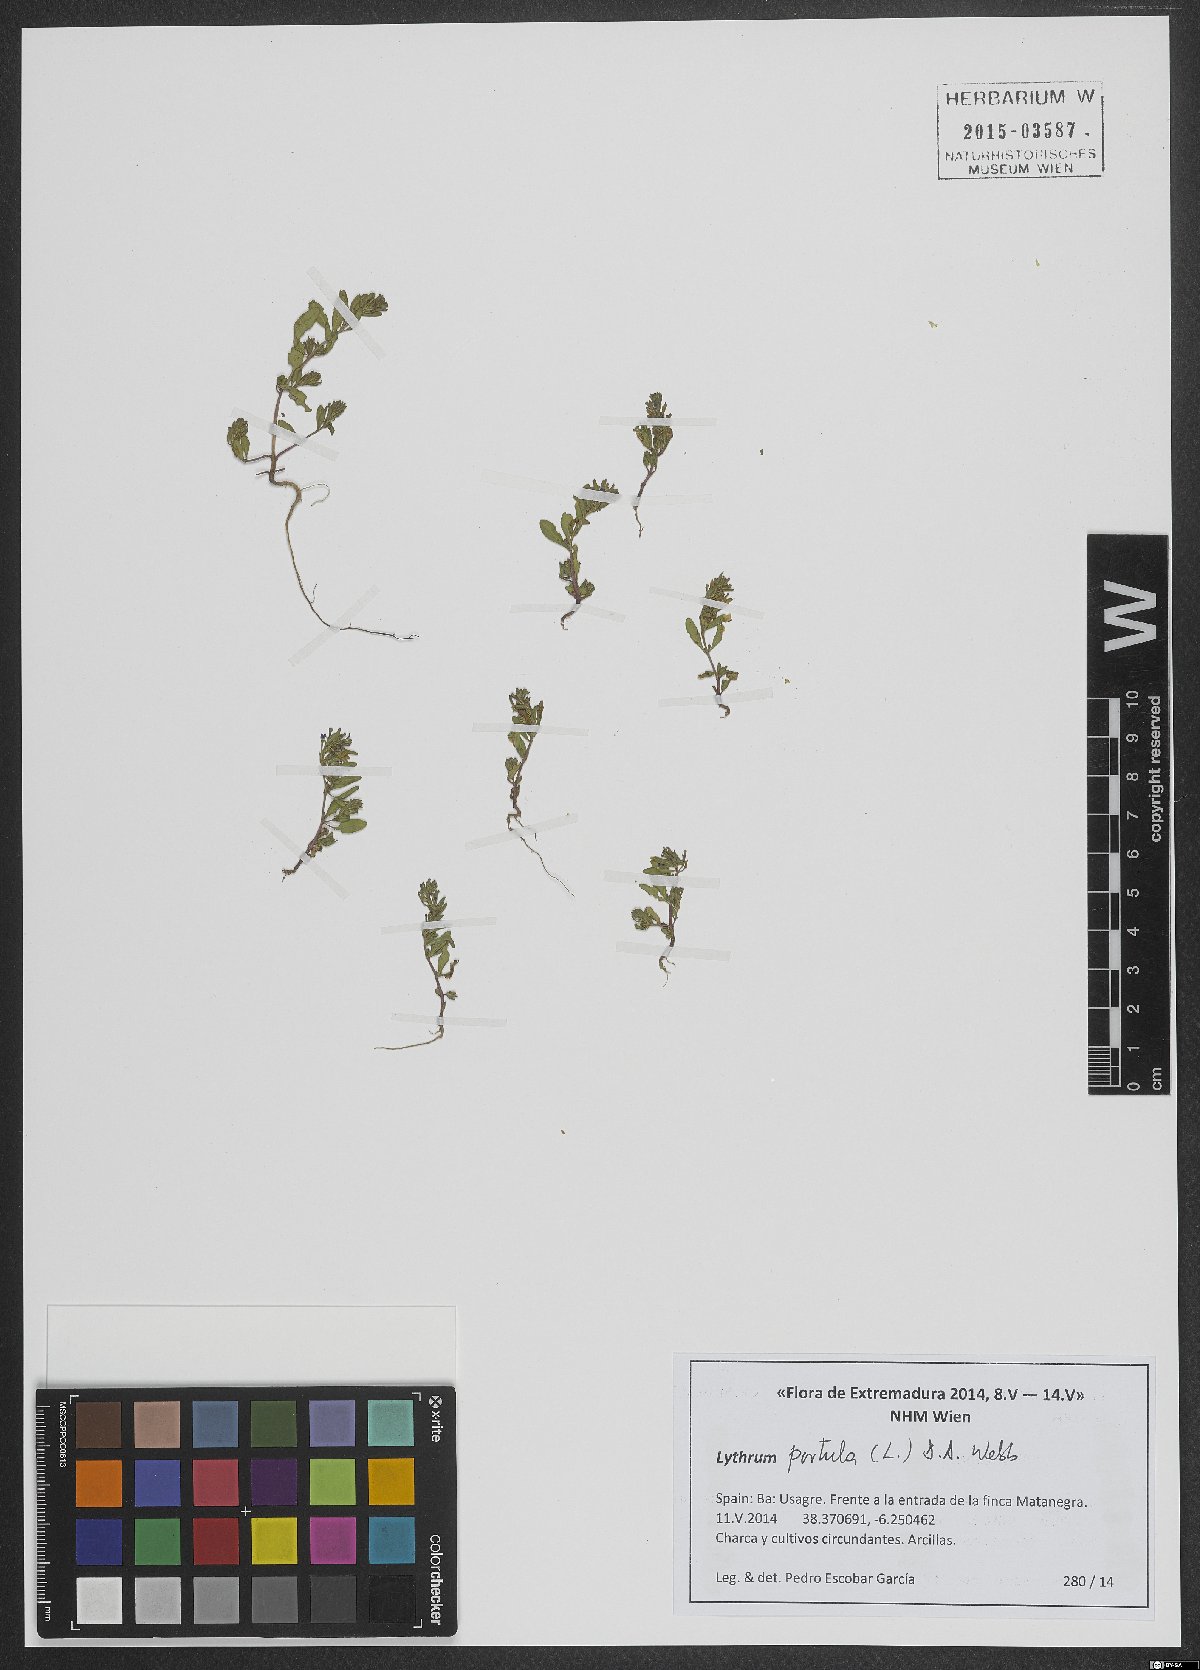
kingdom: Plantae
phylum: Tracheophyta
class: Magnoliopsida
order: Myrtales
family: Lythraceae
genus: Lythrum
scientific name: Lythrum portula
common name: Water purslane
